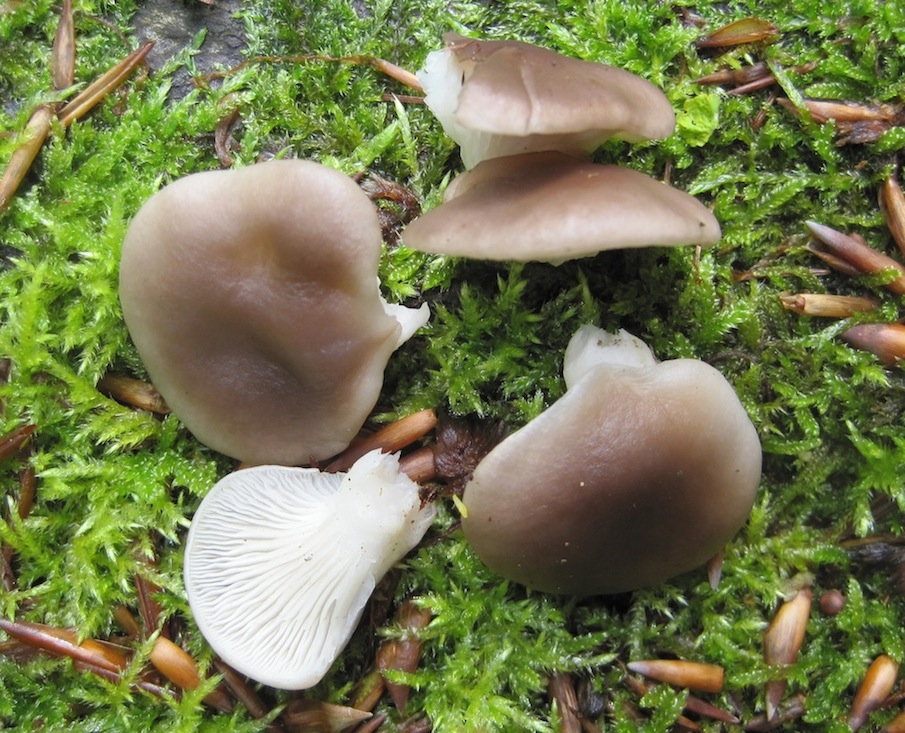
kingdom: Fungi
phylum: Basidiomycota
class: Agaricomycetes
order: Agaricales
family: Pleurotaceae
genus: Pleurotus
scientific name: Pleurotus pulmonarius
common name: sommer-østershat
